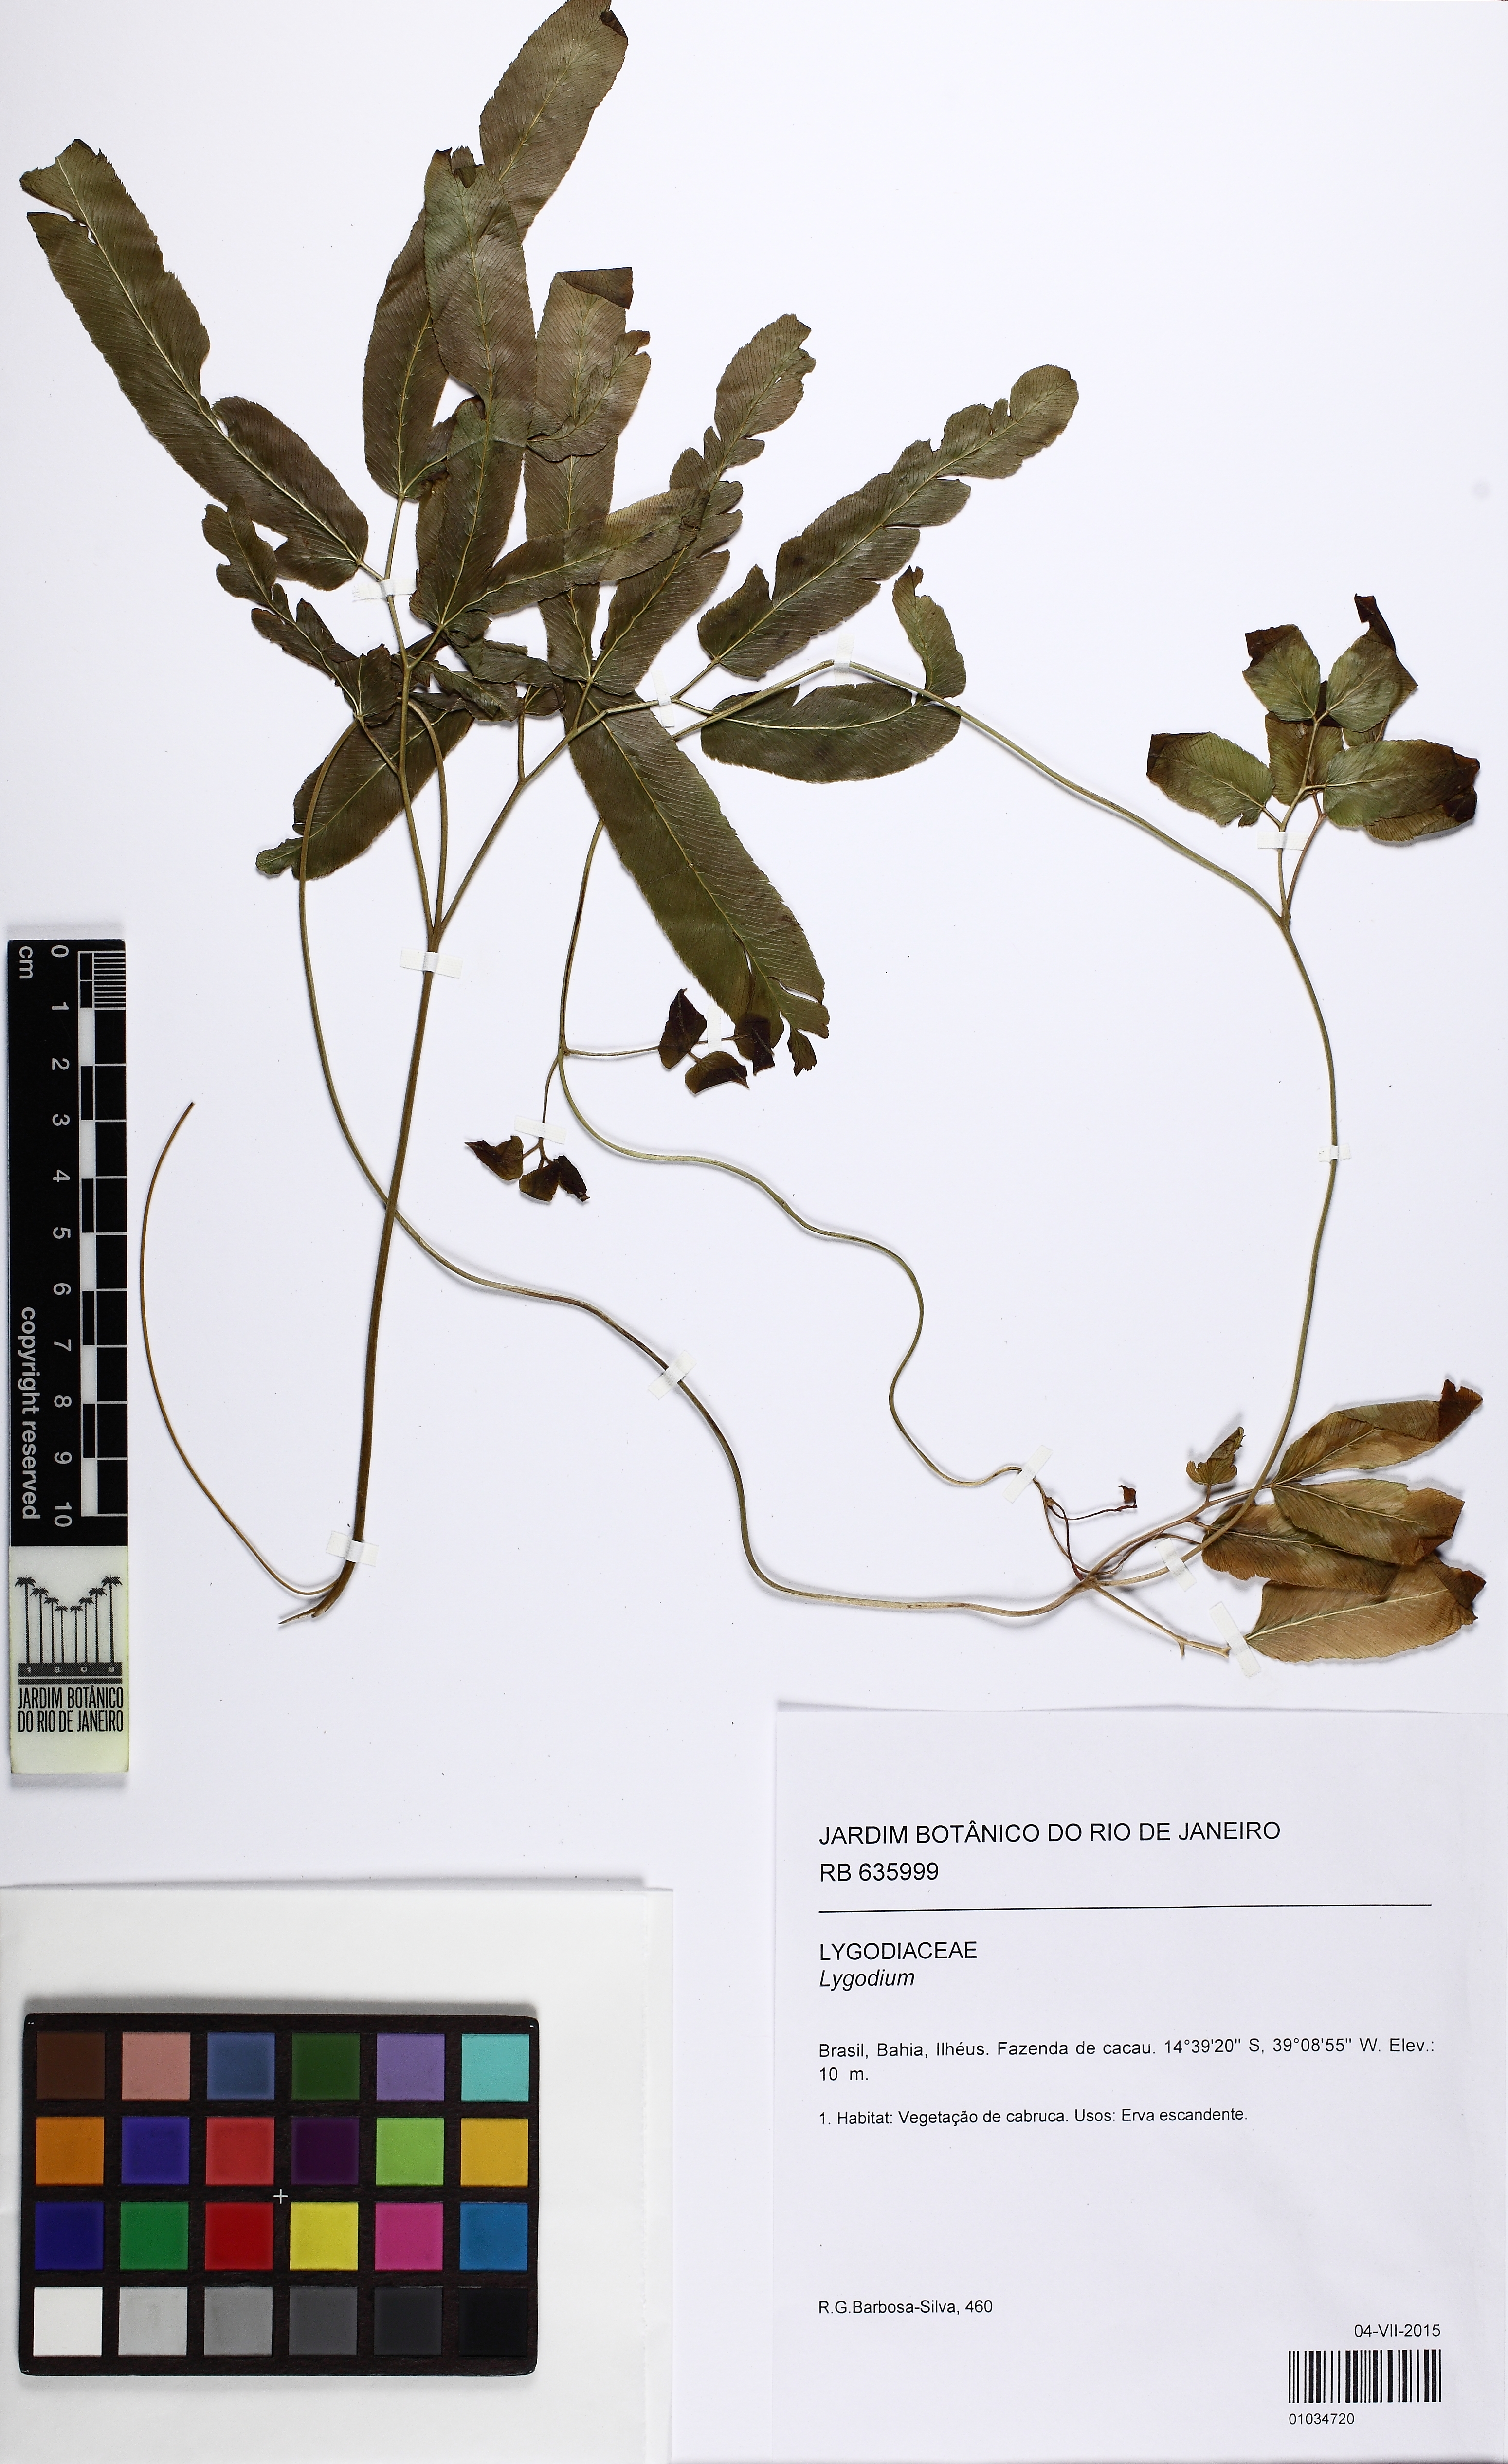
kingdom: Plantae
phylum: Tracheophyta
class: Polypodiopsida
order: Schizaeales
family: Lygodiaceae
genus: Lygodium
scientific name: Lygodium
